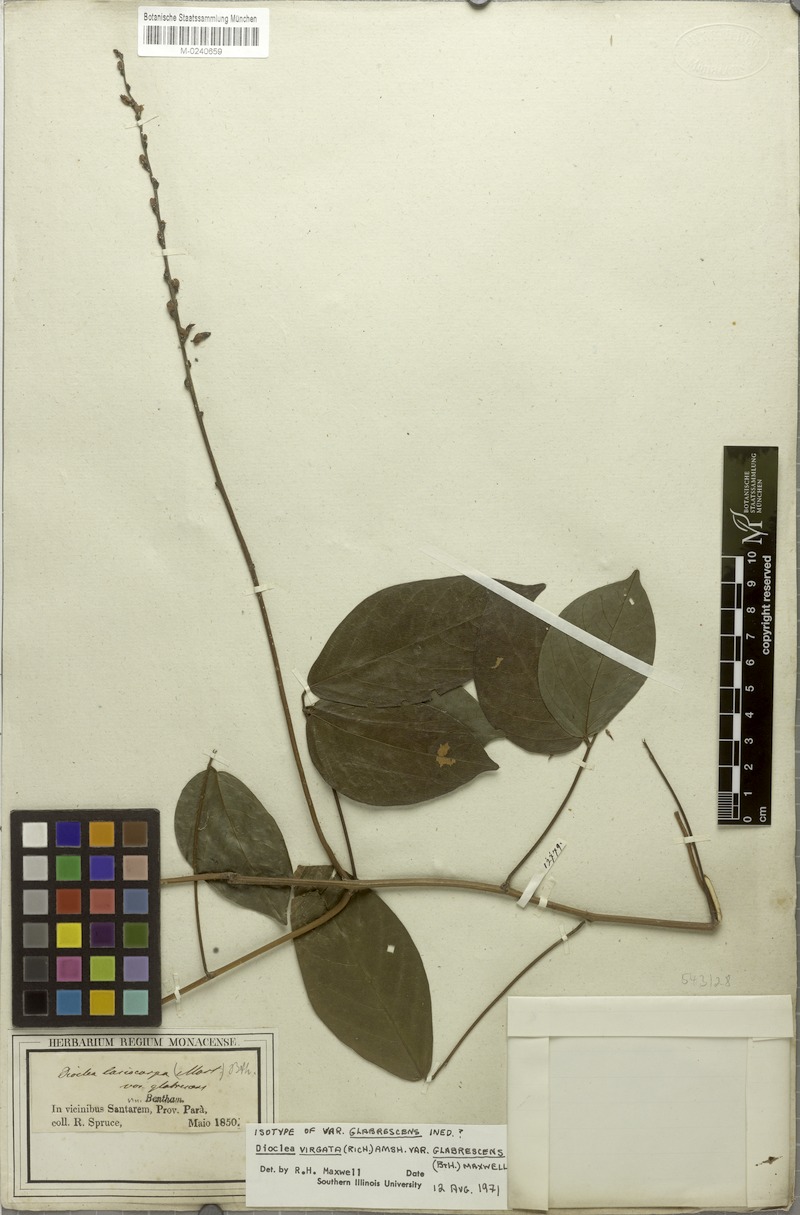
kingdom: Plantae
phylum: Tracheophyta
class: Magnoliopsida
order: Fabales
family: Fabaceae
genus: Dioclea
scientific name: Dioclea virgata
